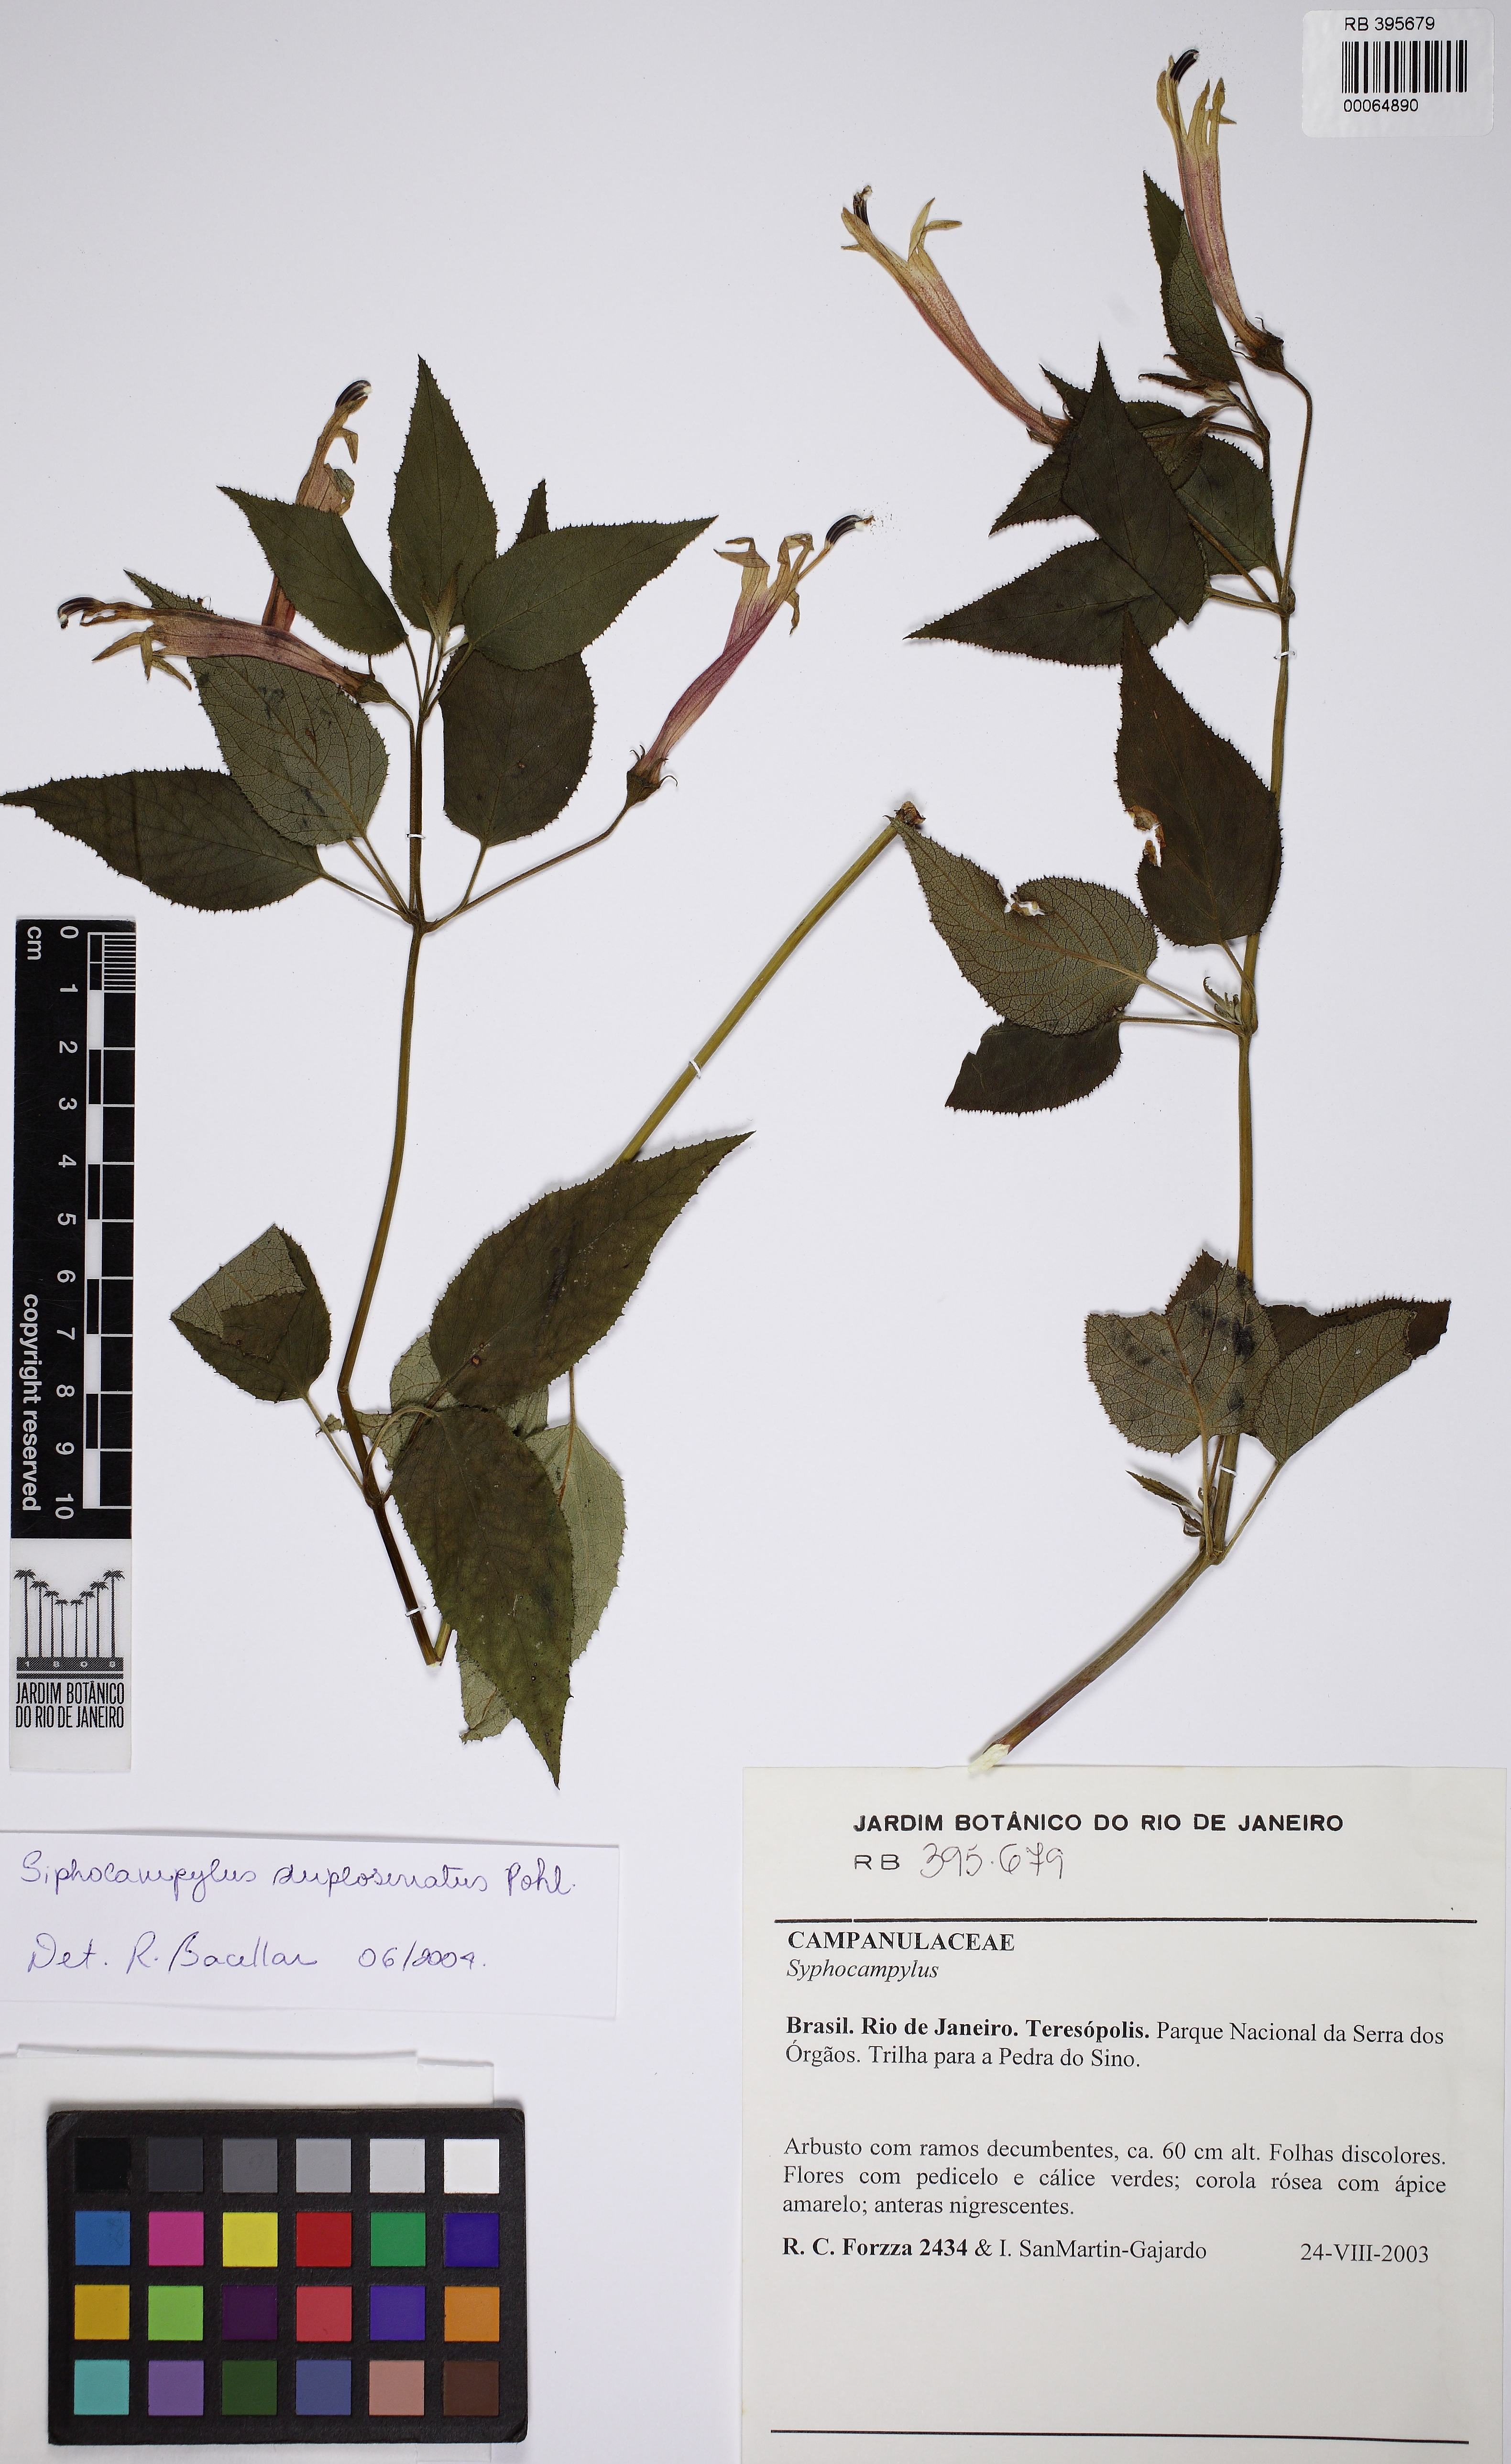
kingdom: Plantae
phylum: Tracheophyta
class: Magnoliopsida
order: Asterales
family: Campanulaceae
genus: Siphocampylus
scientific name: Siphocampylus
